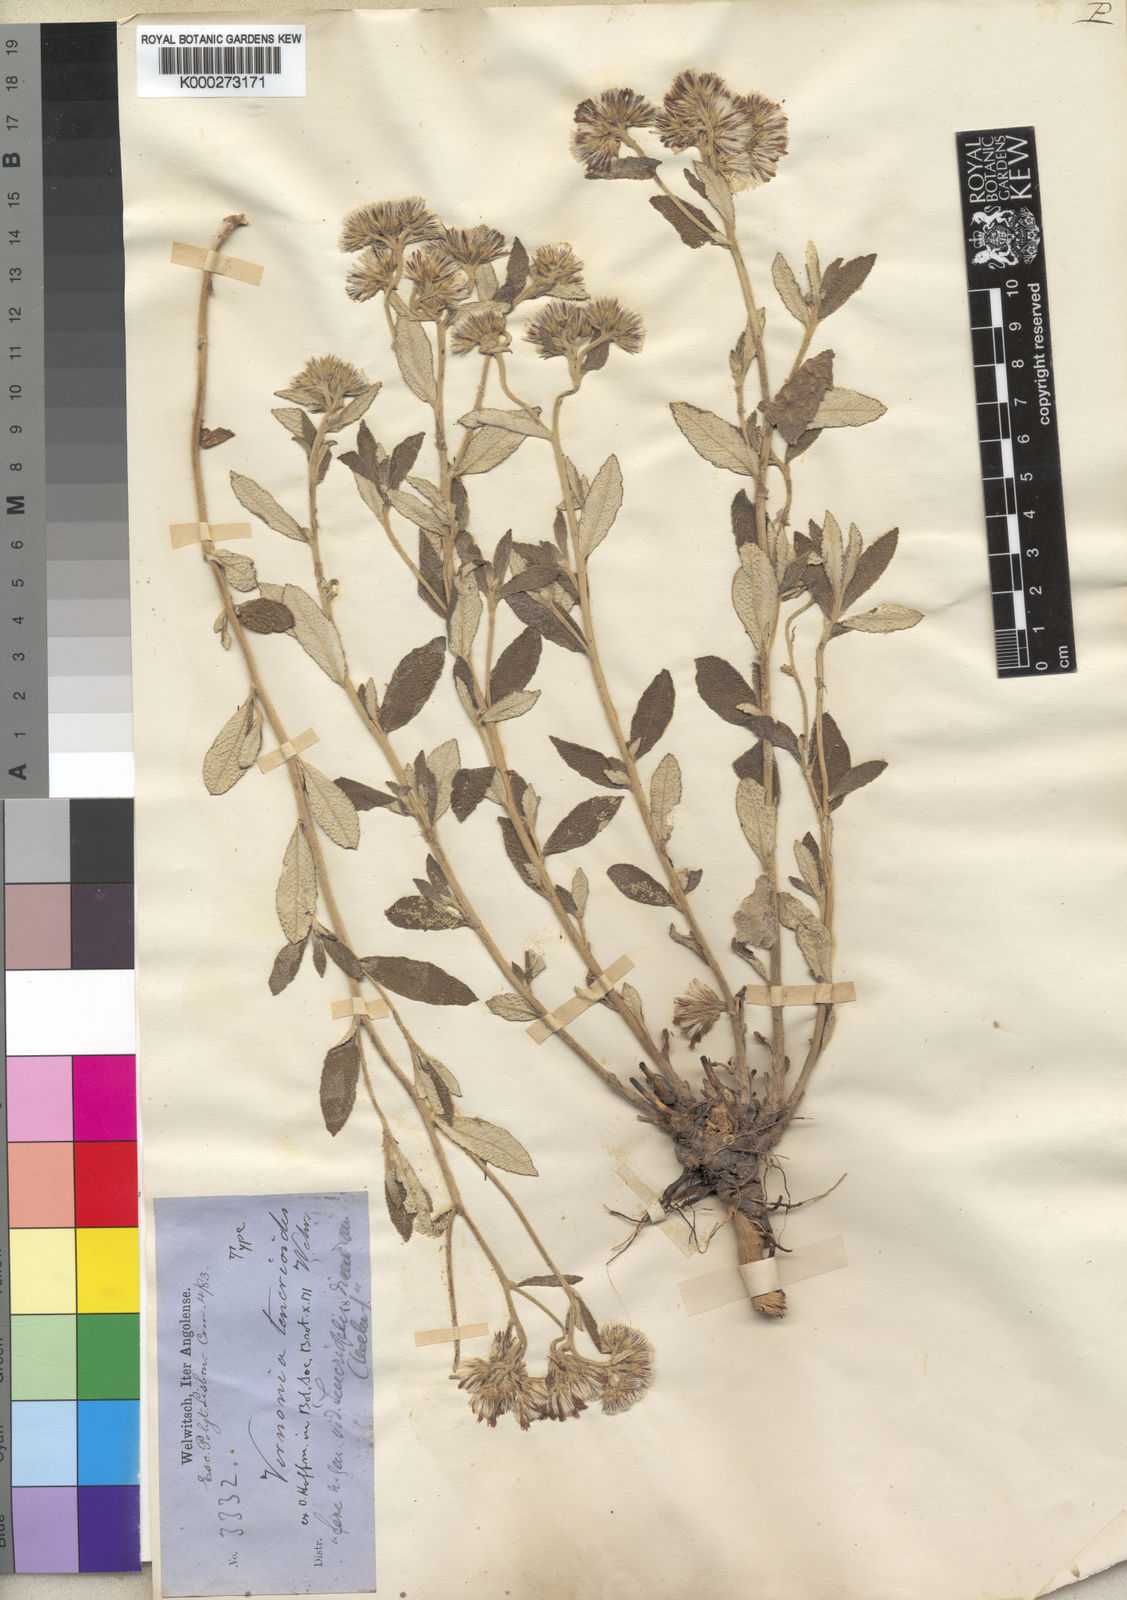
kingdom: Plantae
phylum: Tracheophyta
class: Magnoliopsida
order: Asterales
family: Asteraceae
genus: Vernonia
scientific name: Vernonia teucrioides
